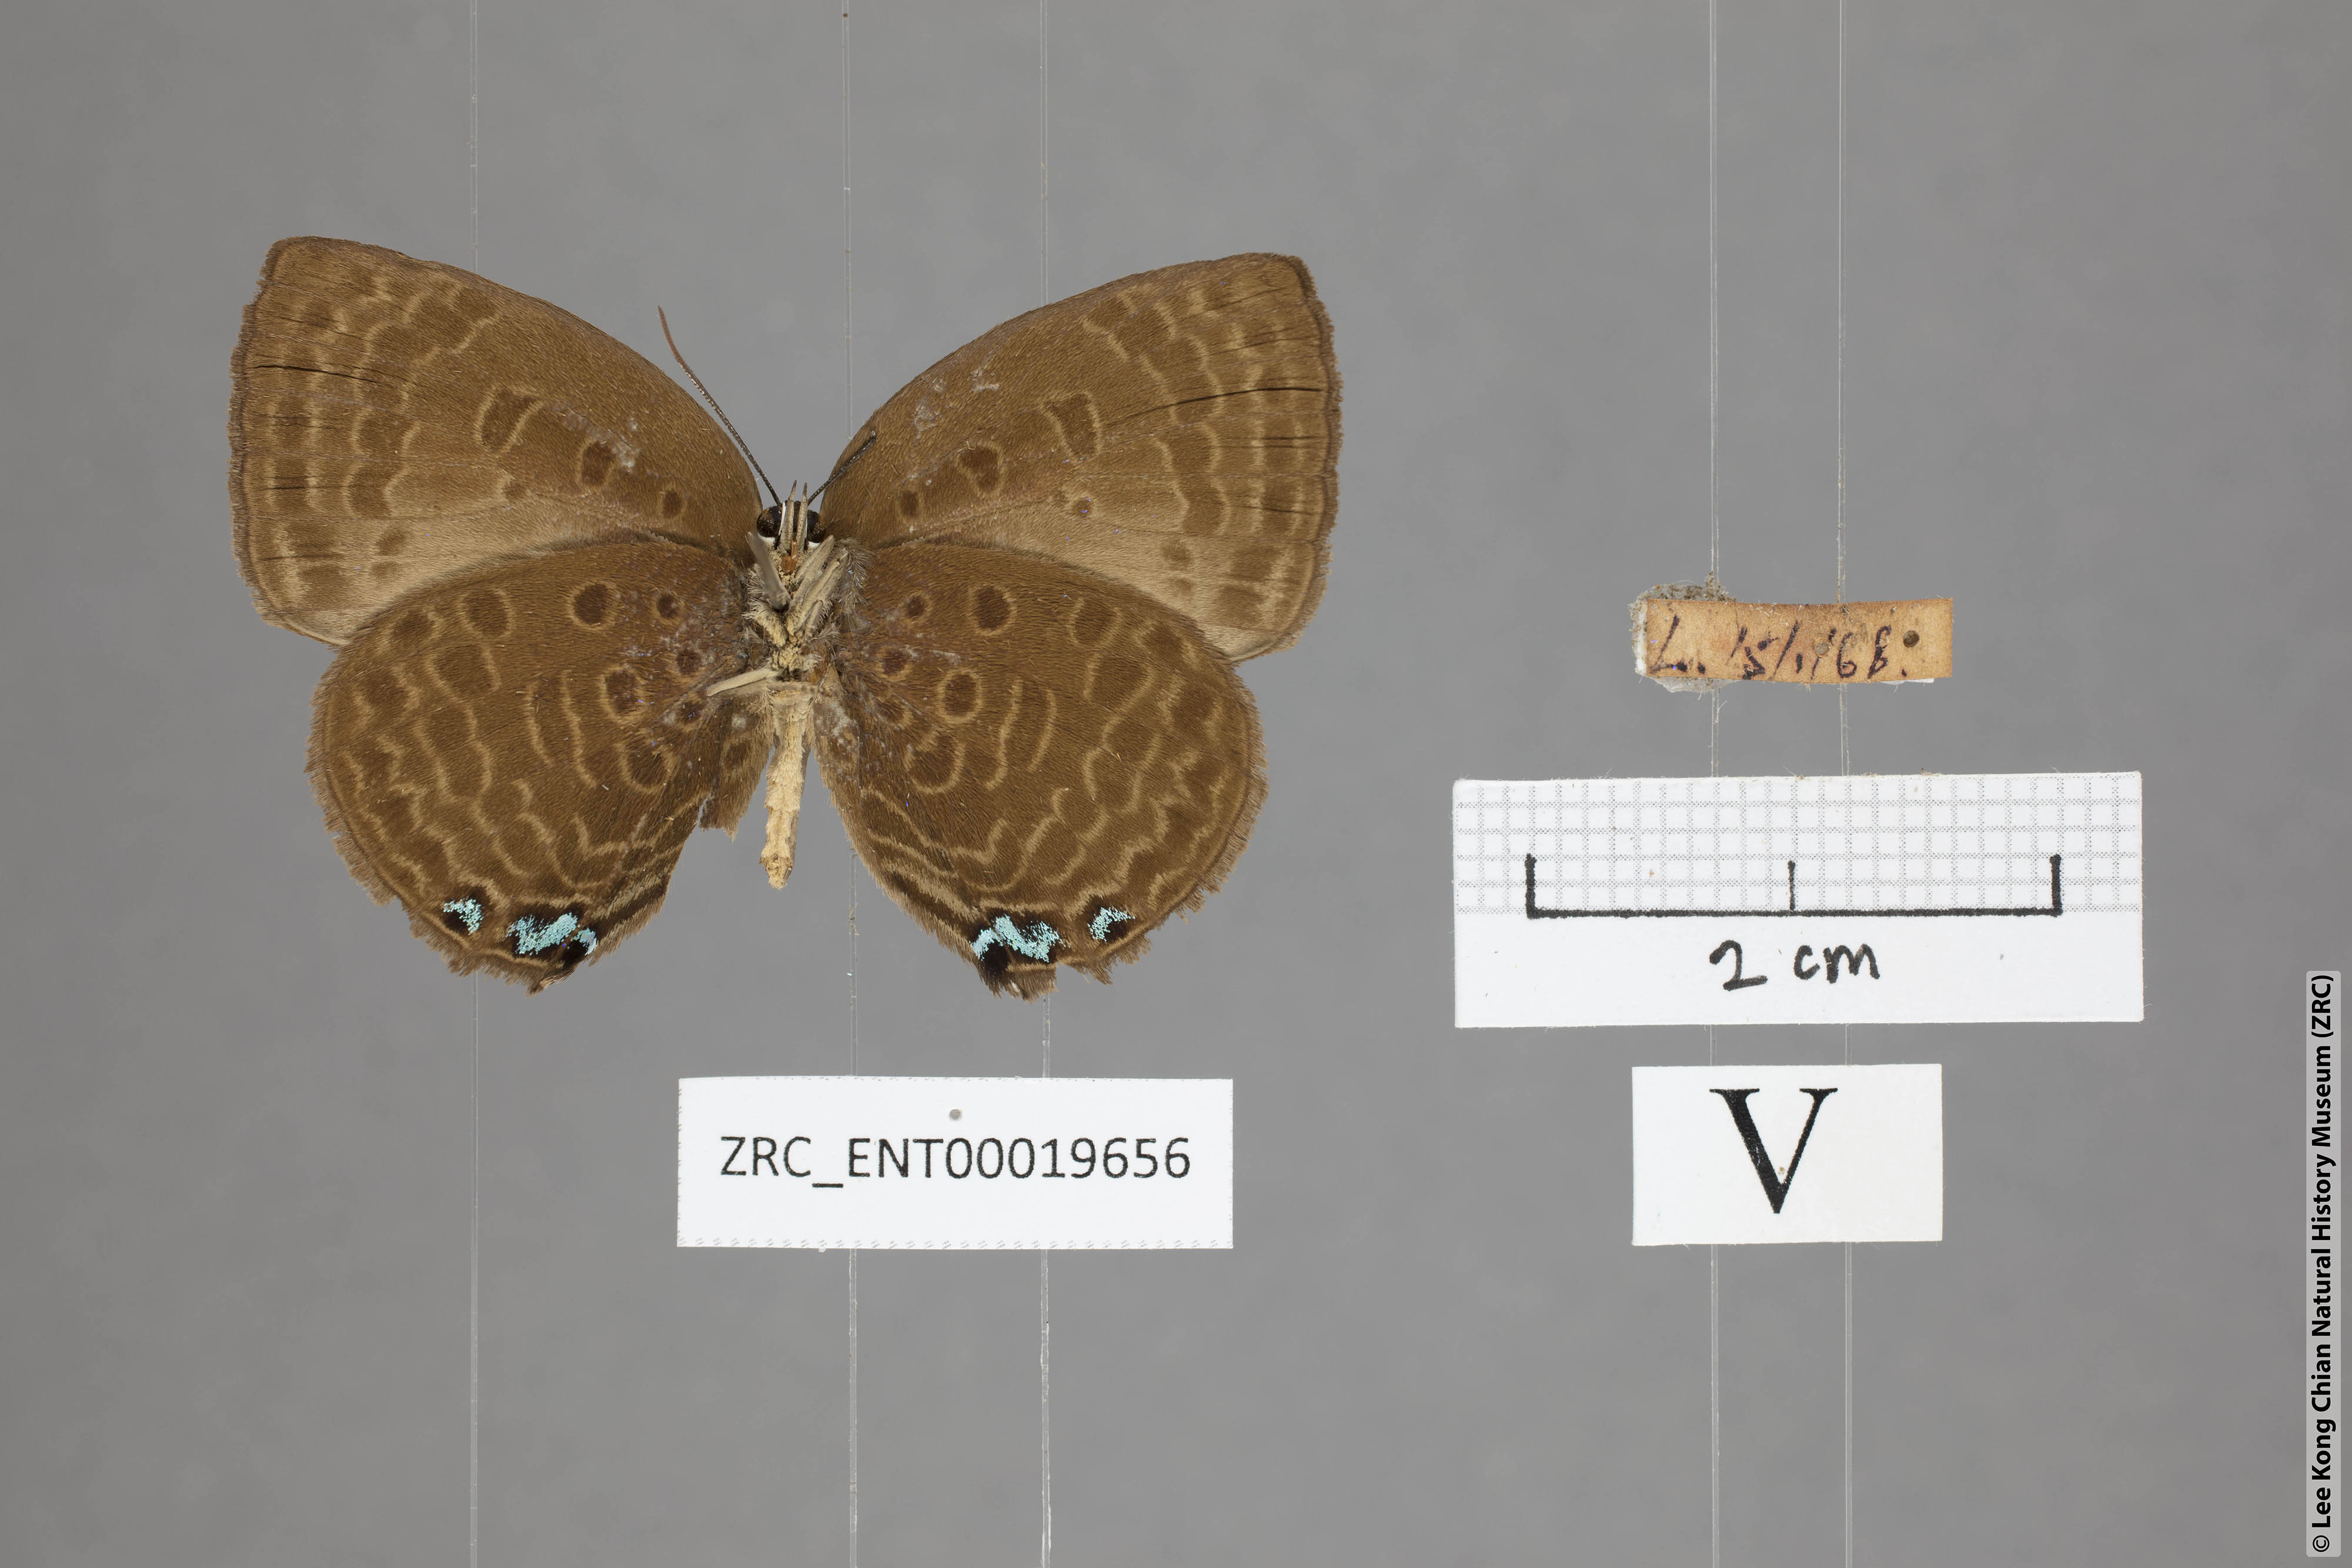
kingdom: Animalia
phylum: Arthropoda
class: Insecta
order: Lepidoptera
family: Lycaenidae
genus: Arhopala
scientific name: Arhopala moolaina
